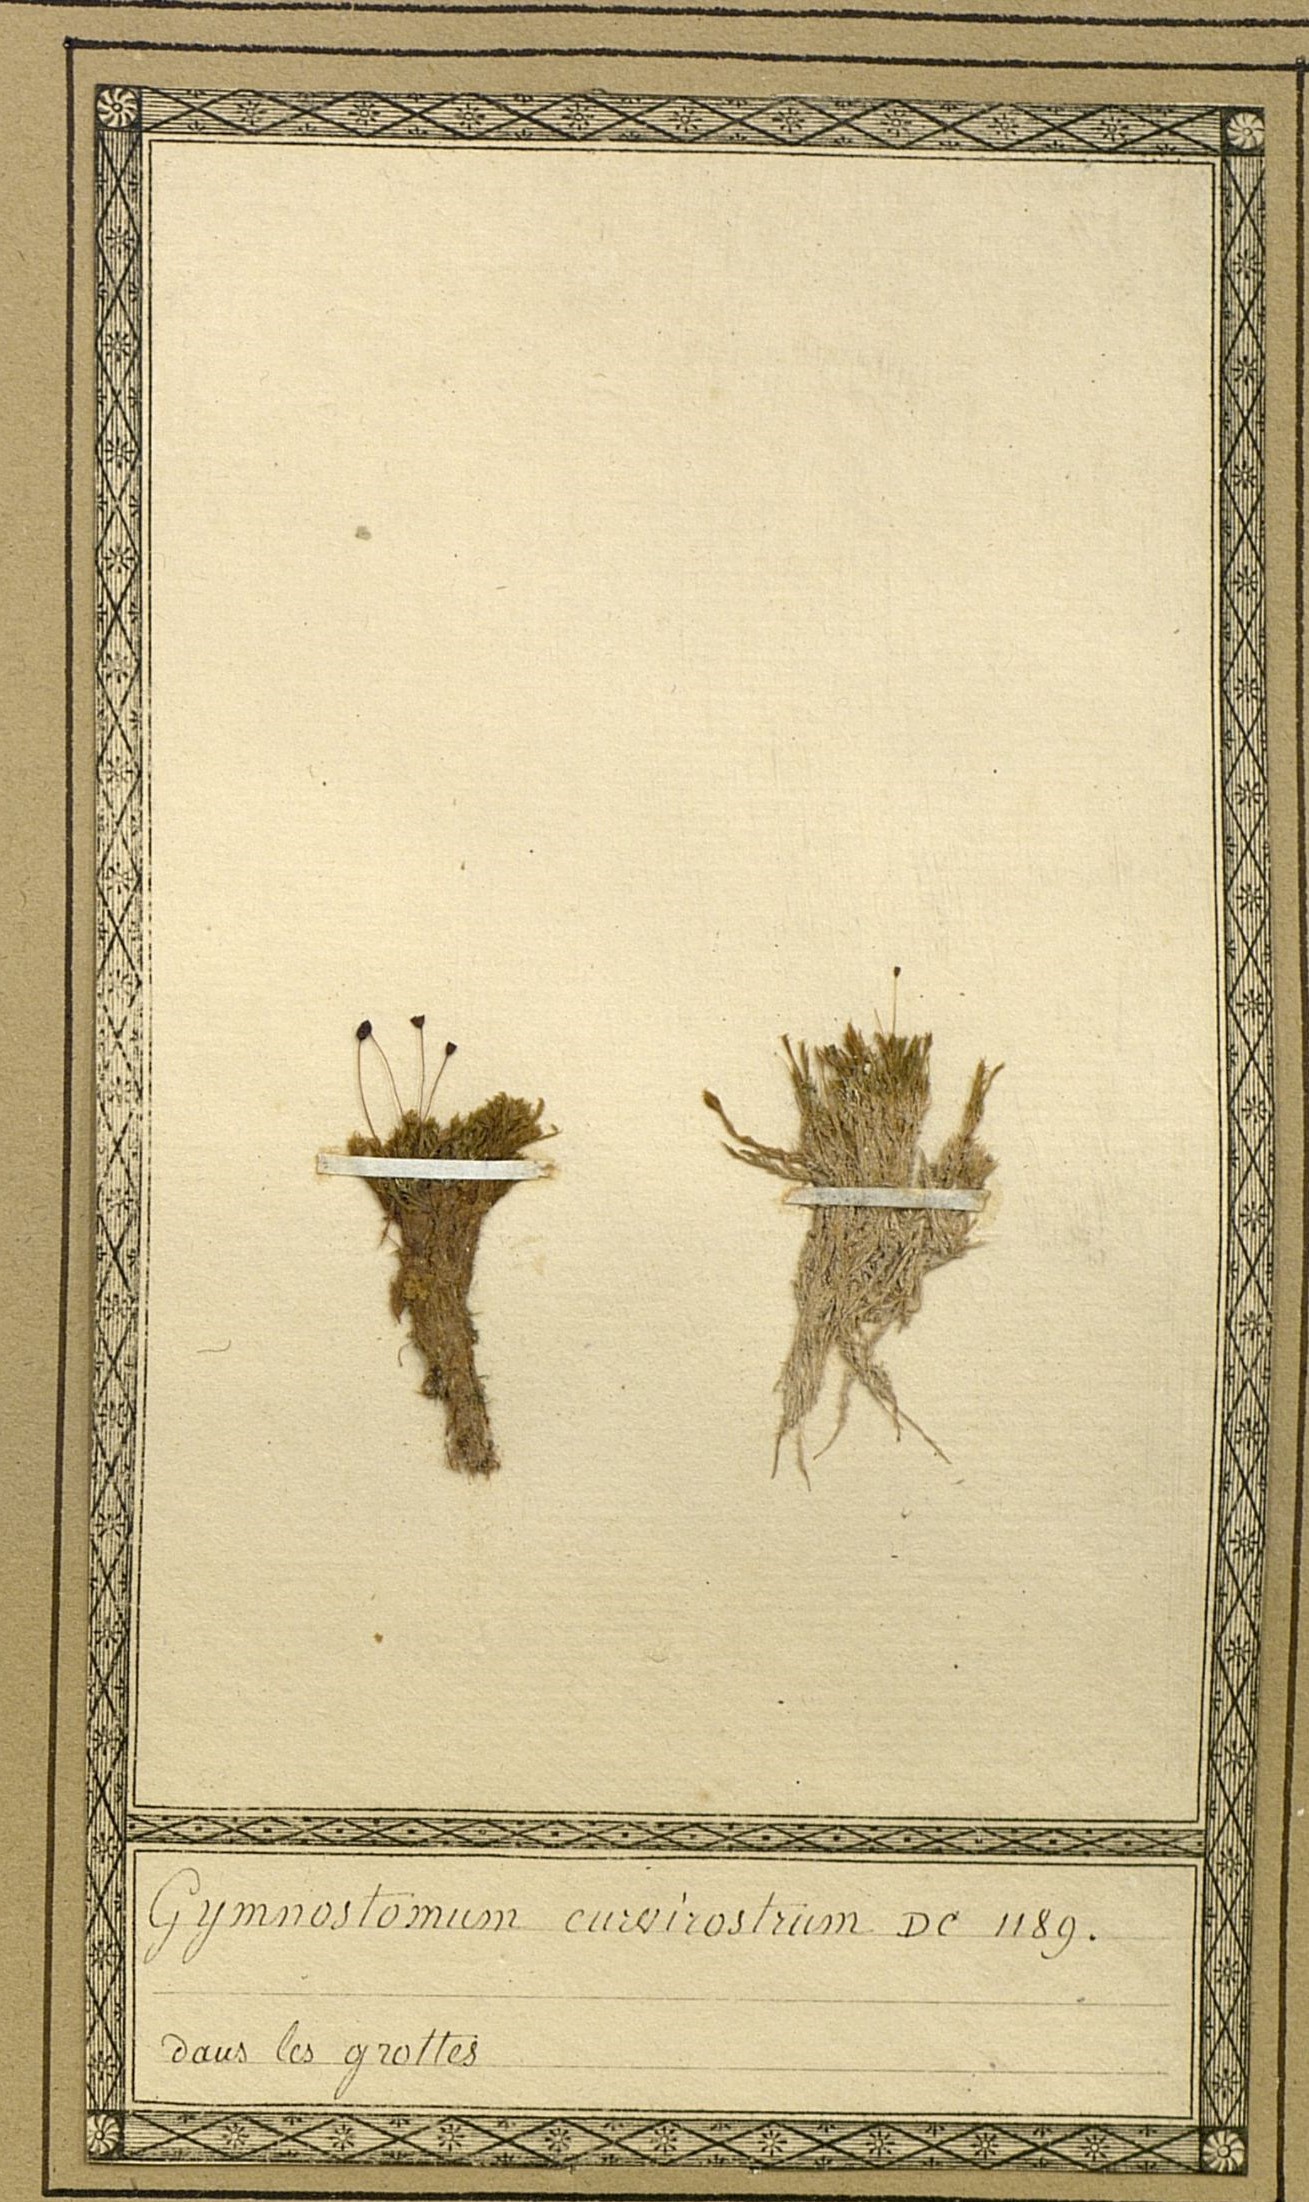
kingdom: Plantae
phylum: Bryophyta
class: Bryopsida
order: Pottiales
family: Pottiaceae
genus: Hymenostylium
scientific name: Hymenostylium recurvirostrum
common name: Hook-beak tufa-moss
